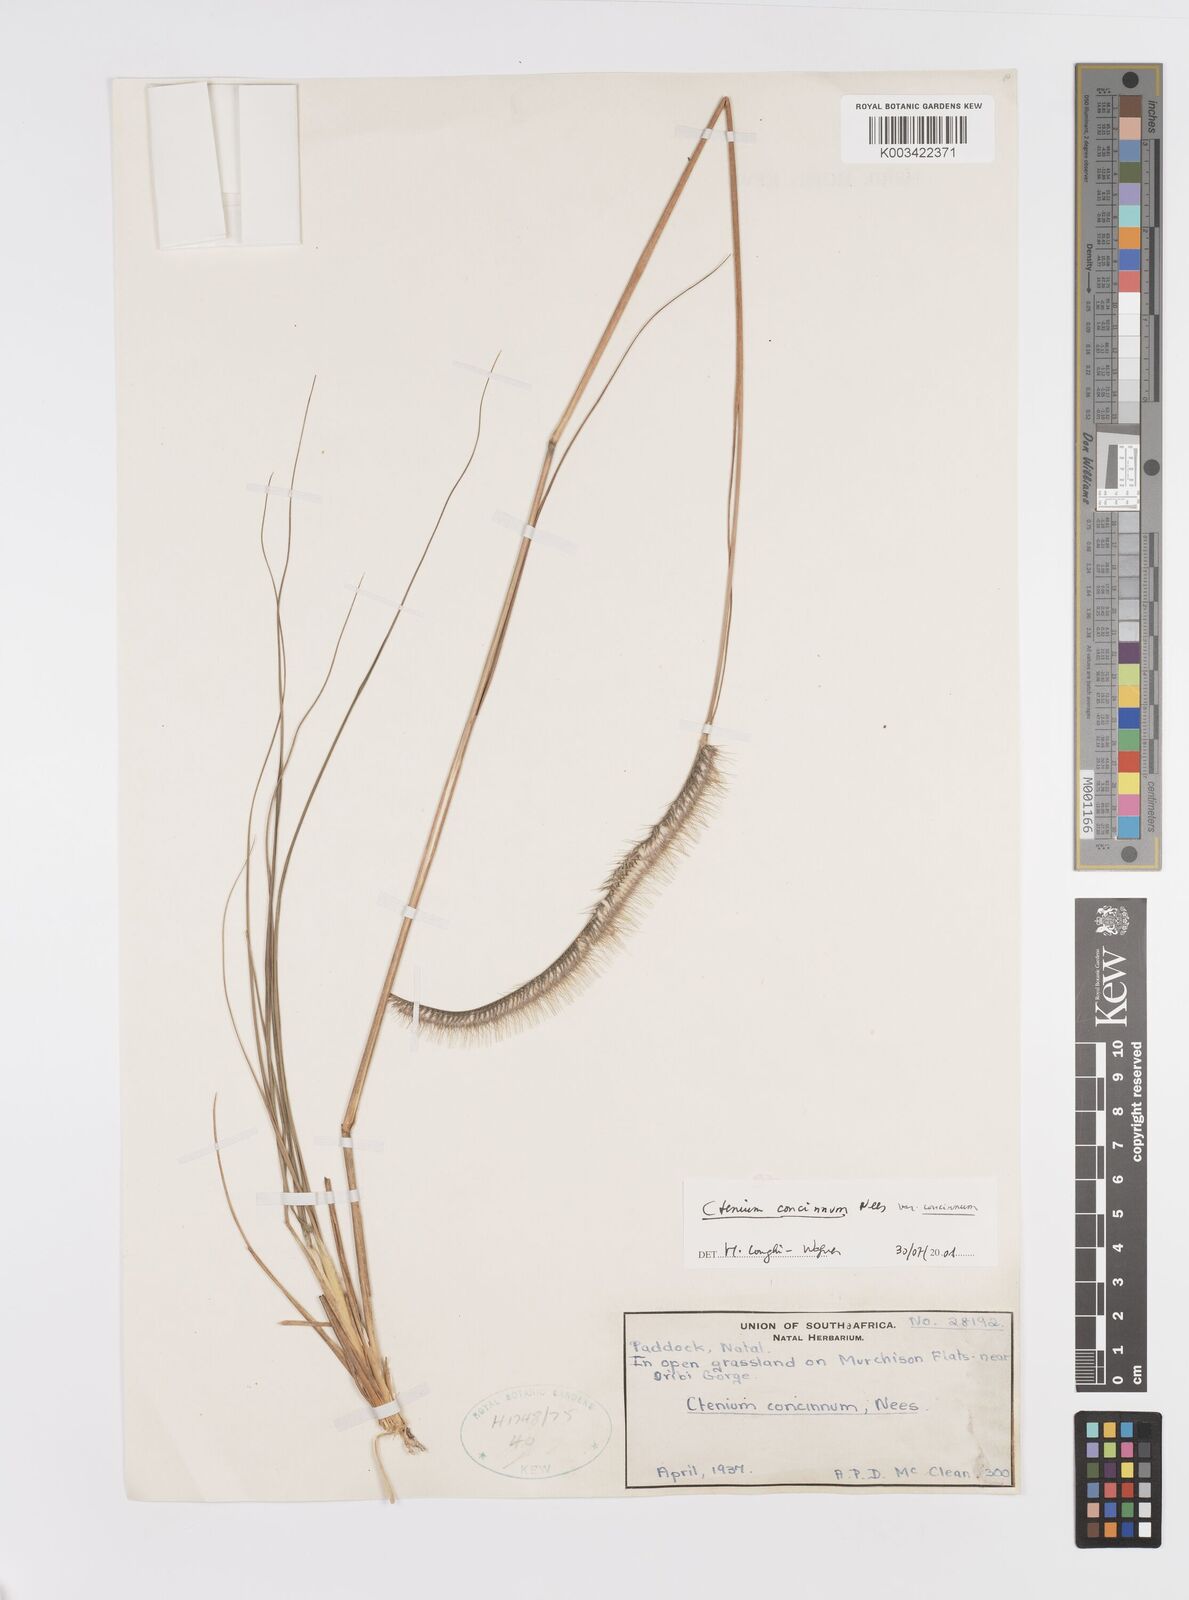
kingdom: Plantae
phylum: Tracheophyta
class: Liliopsida
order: Poales
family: Poaceae
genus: Ctenium
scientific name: Ctenium concinnum
